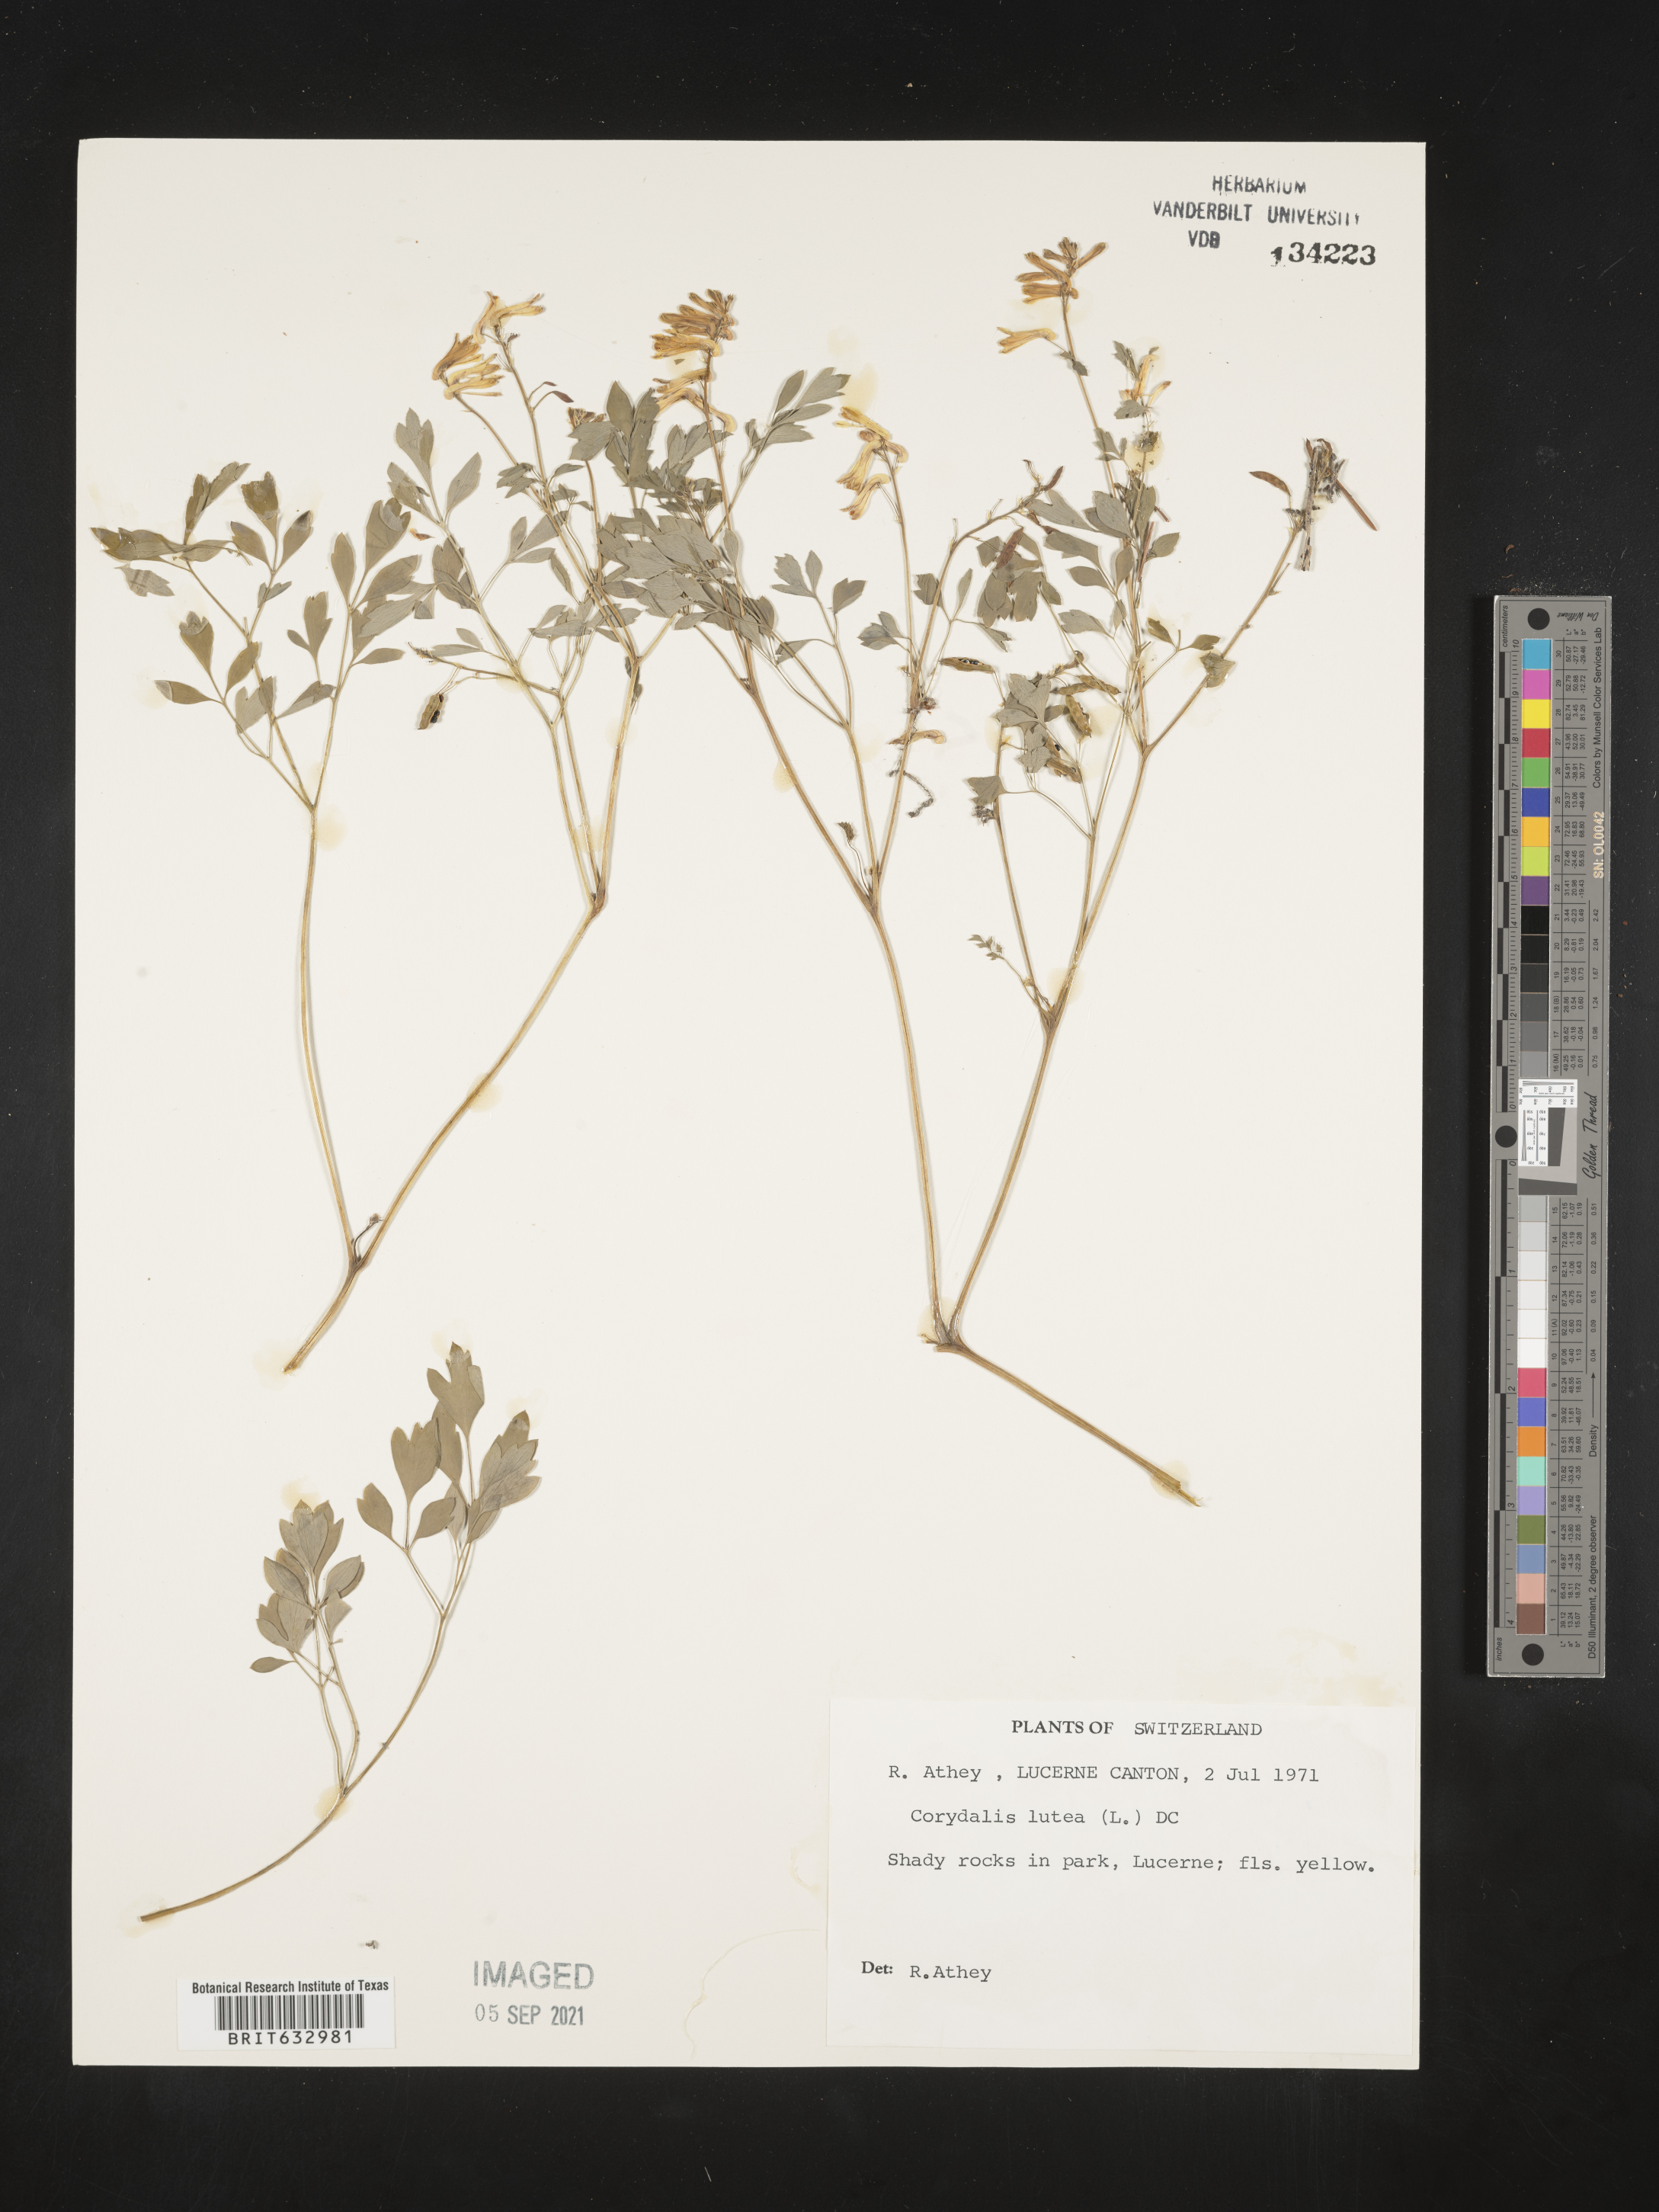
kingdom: Plantae
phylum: Tracheophyta
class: Magnoliopsida
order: Ranunculales
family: Papaveraceae
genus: Corydalis
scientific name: Corydalis
